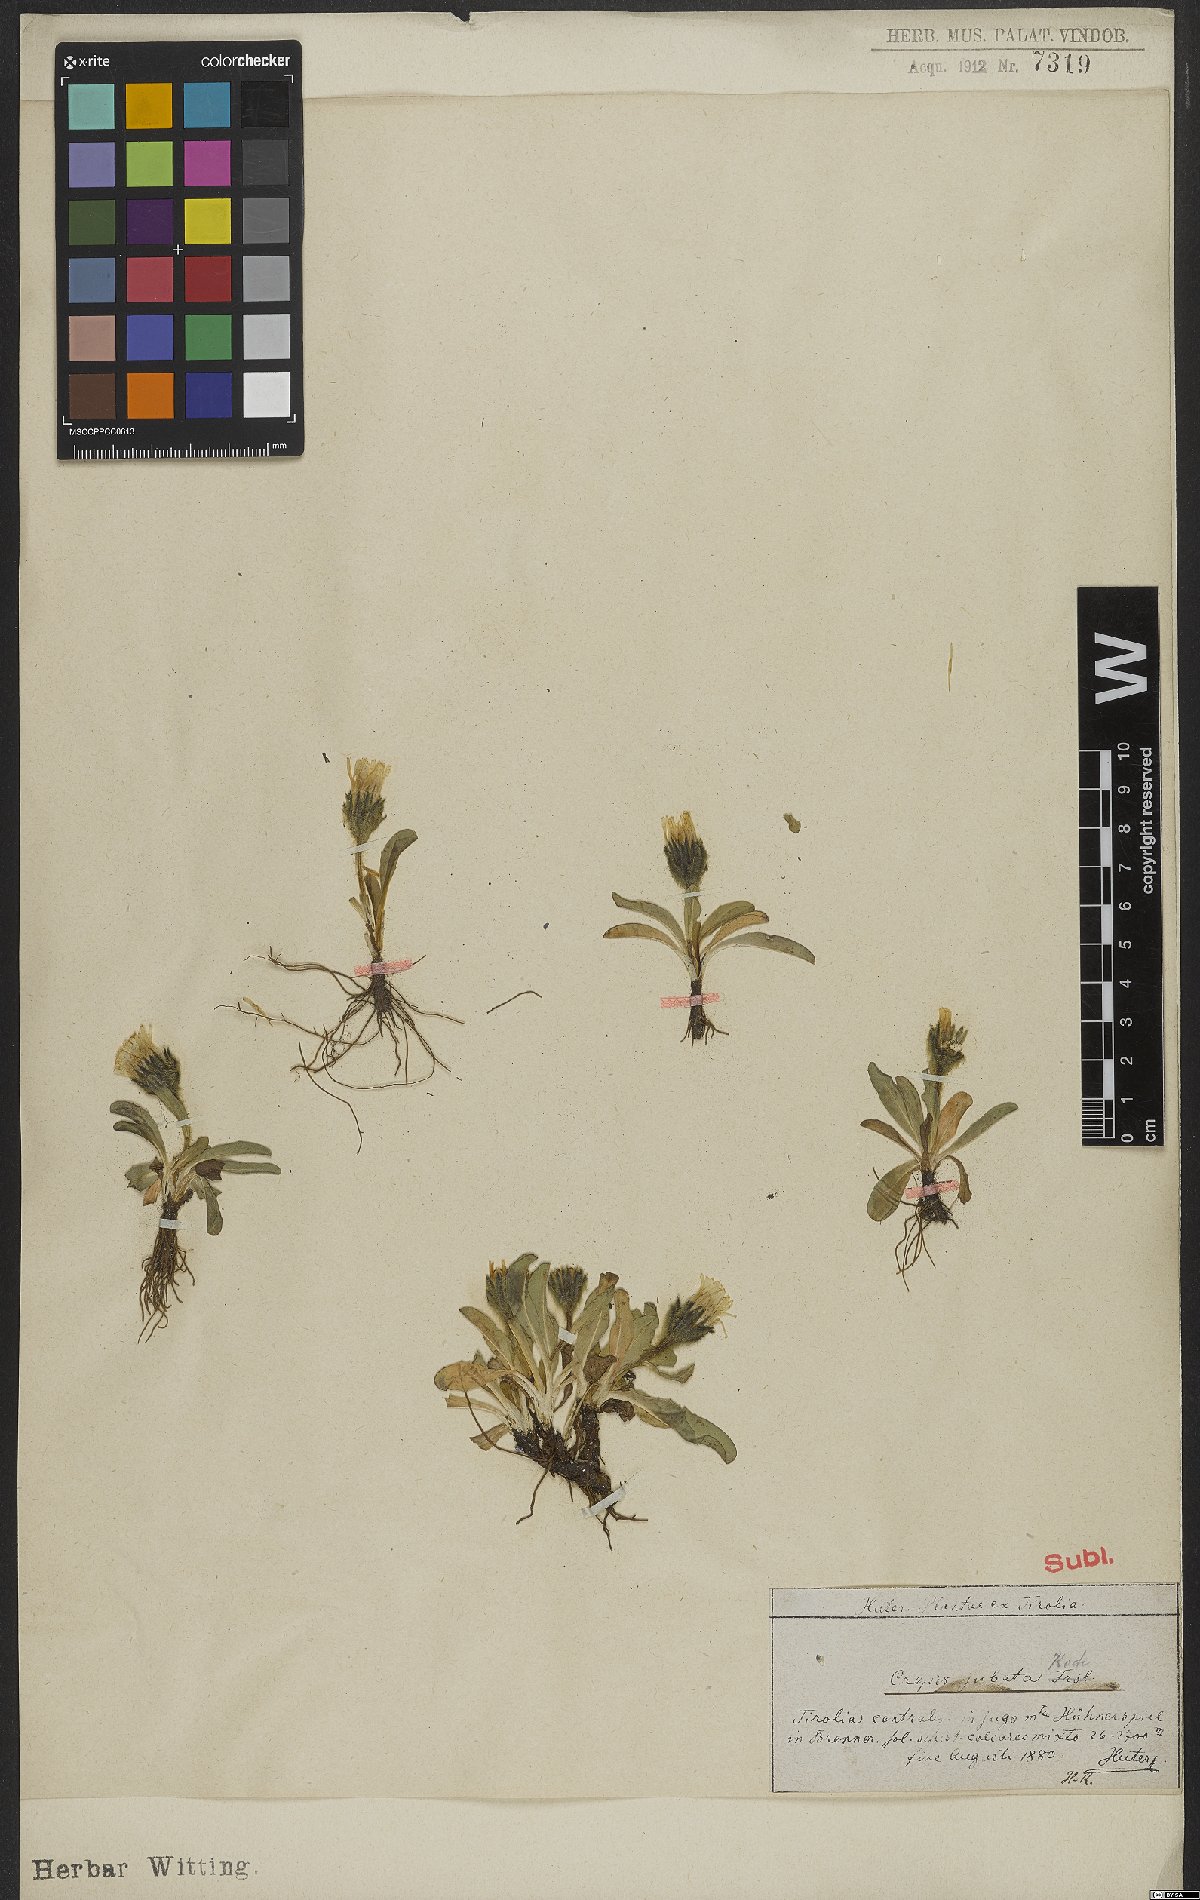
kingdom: Plantae
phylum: Tracheophyta
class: Magnoliopsida
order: Asterales
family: Asteraceae
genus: Crepis
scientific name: Crepis rhaetica
